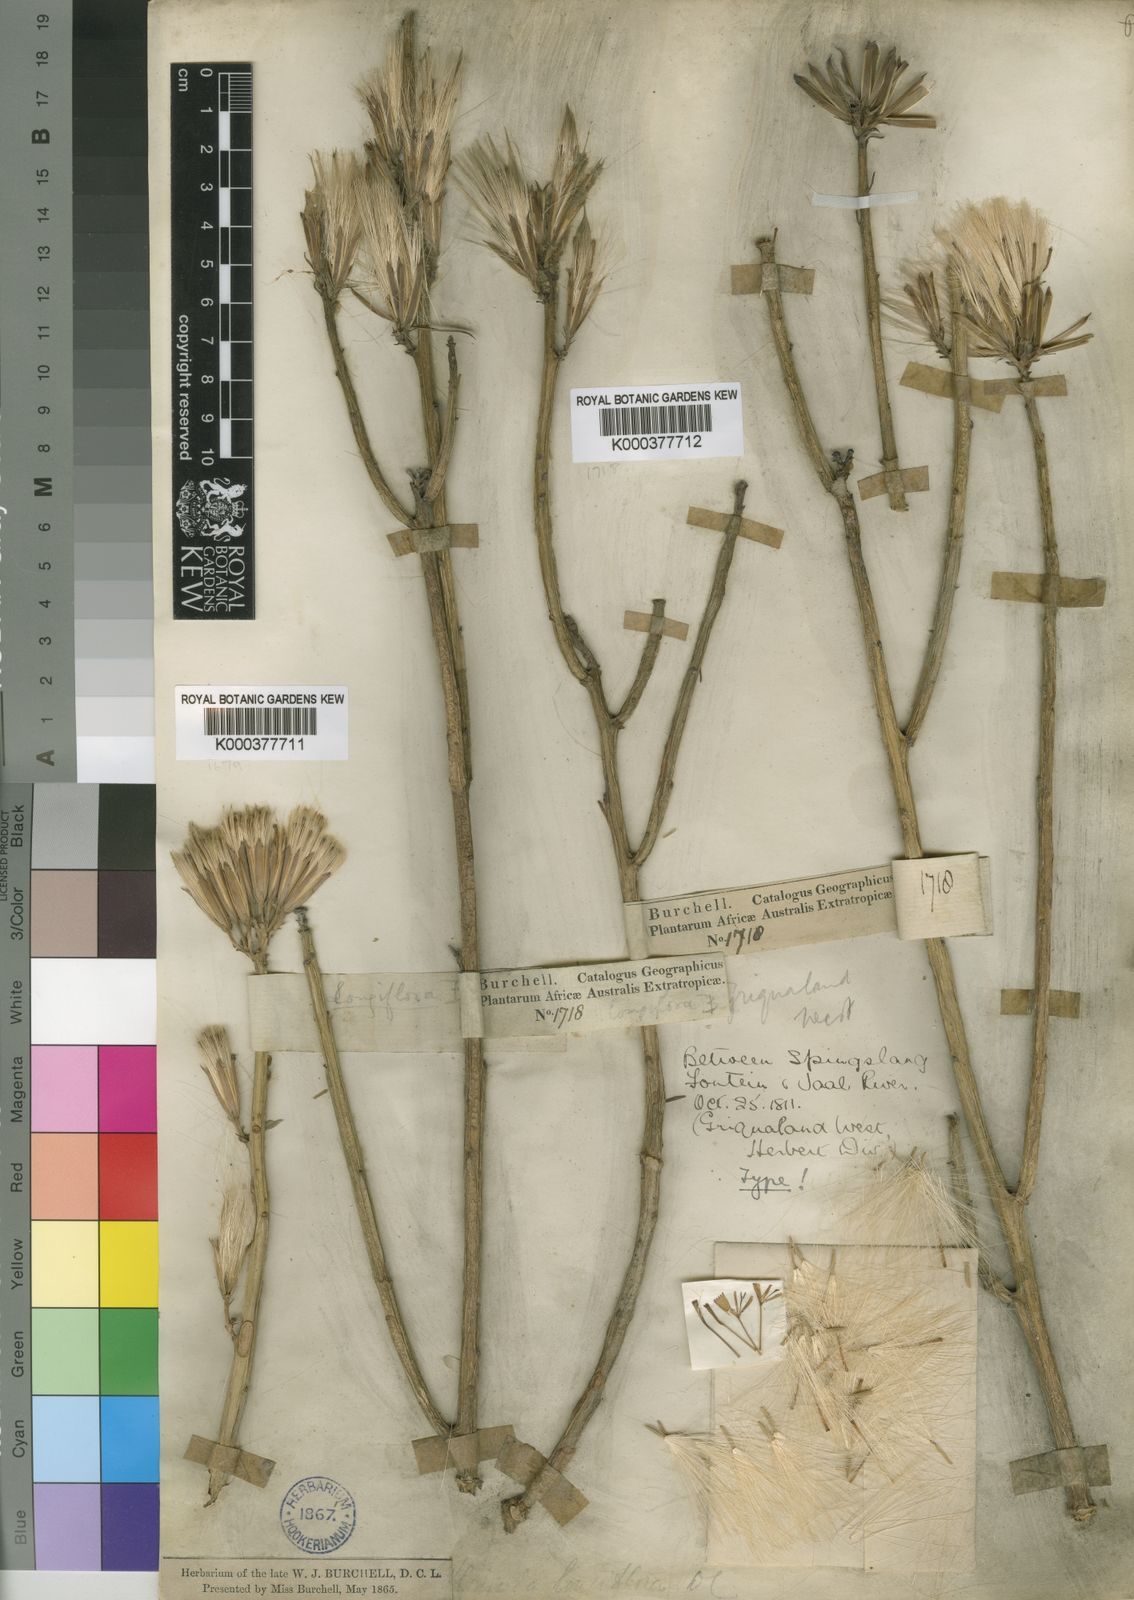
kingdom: Plantae
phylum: Tracheophyta
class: Magnoliopsida
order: Asterales
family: Asteraceae
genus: Curio
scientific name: Curio avasimontanus
